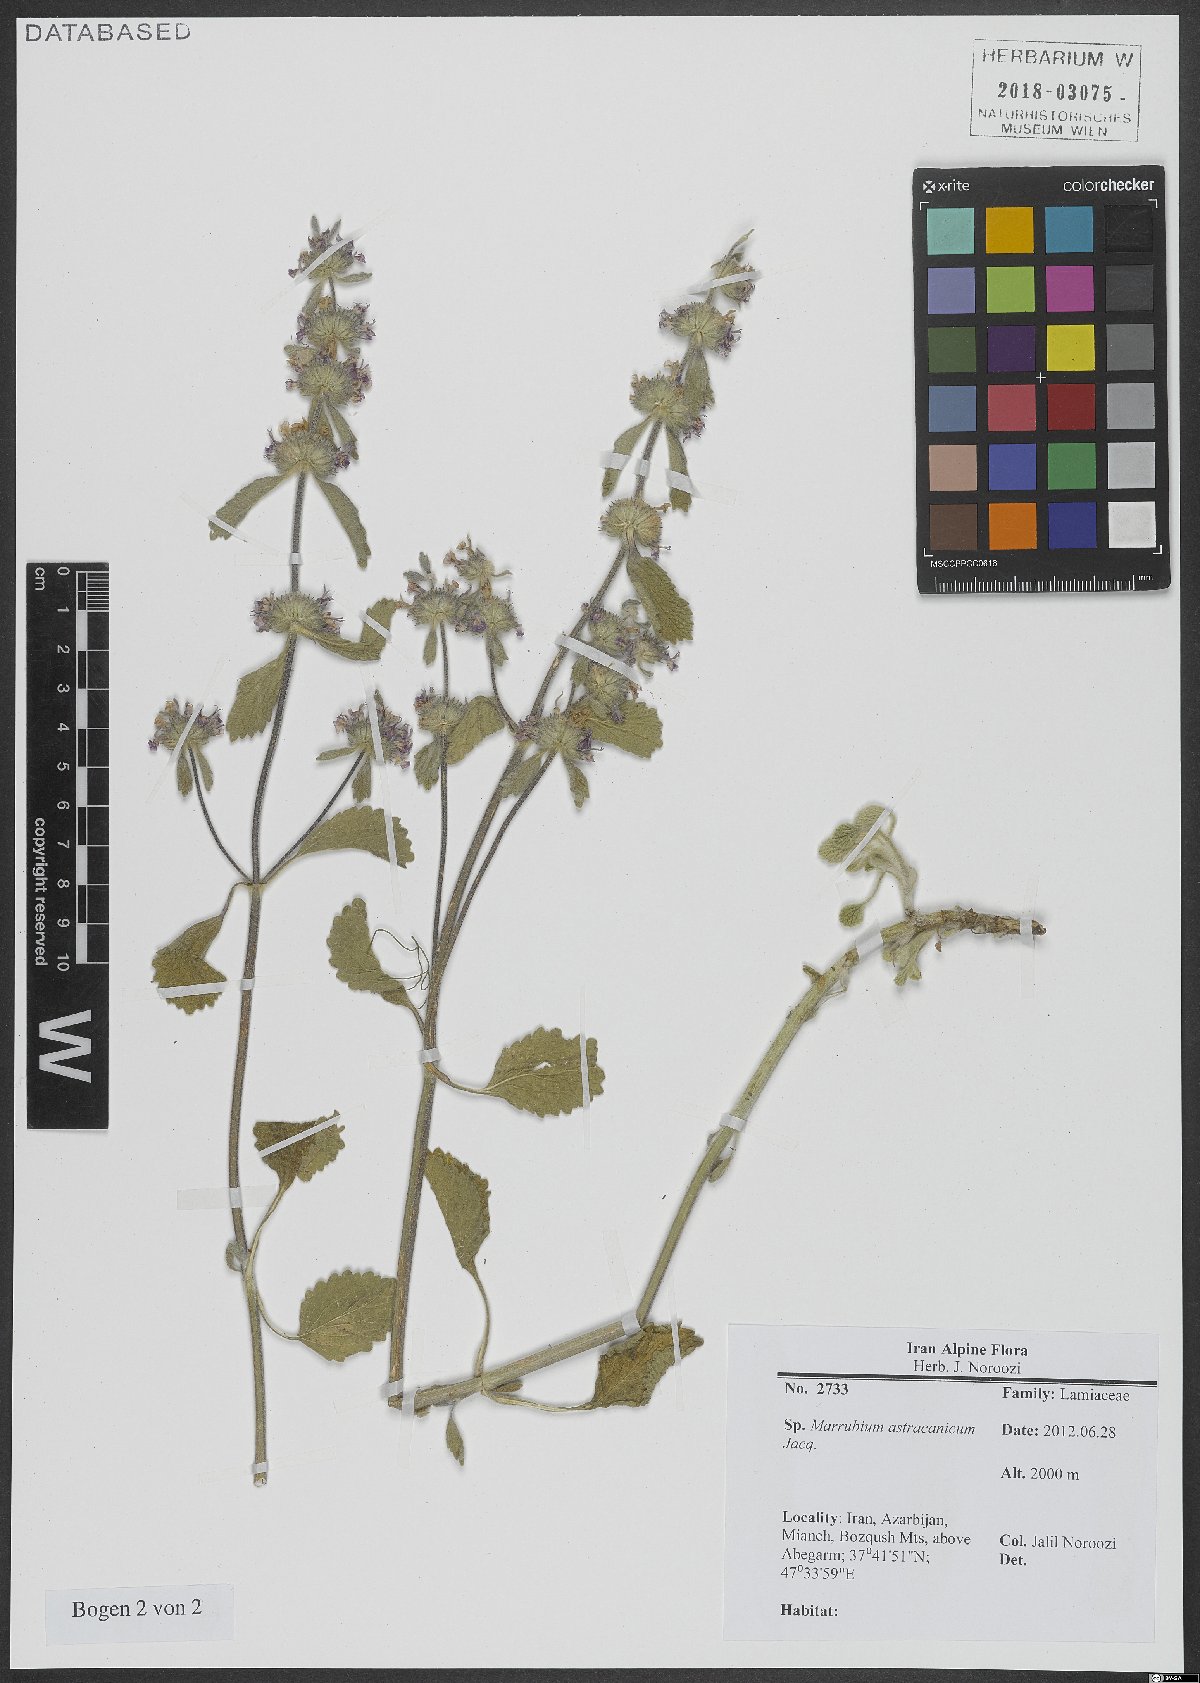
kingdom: Plantae
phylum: Tracheophyta
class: Magnoliopsida
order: Lamiales
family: Lamiaceae
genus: Marrubium
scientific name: Marrubium astracanicum
